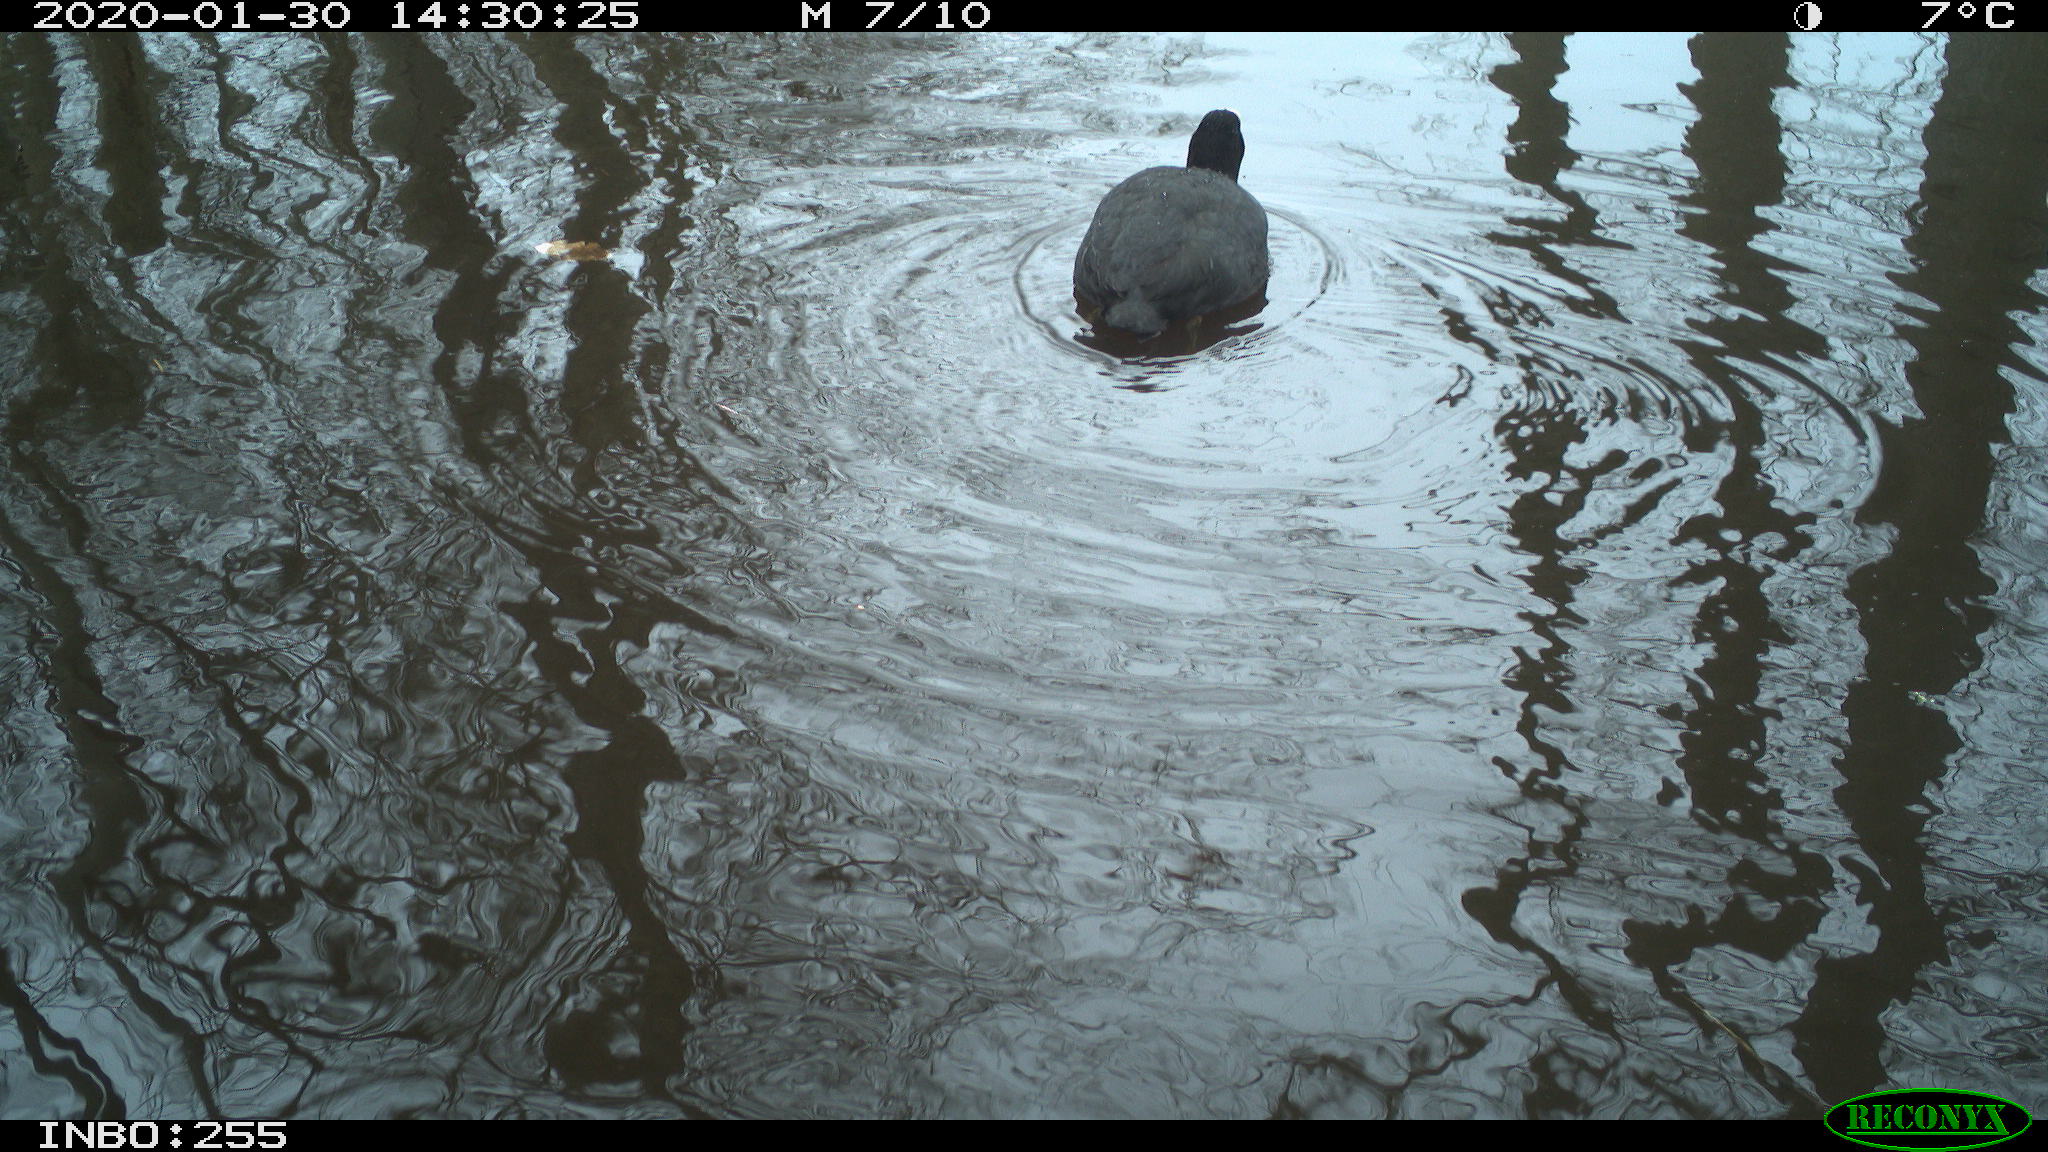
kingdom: Animalia
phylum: Chordata
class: Aves
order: Gruiformes
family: Rallidae
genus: Fulica
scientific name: Fulica atra
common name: Eurasian coot
